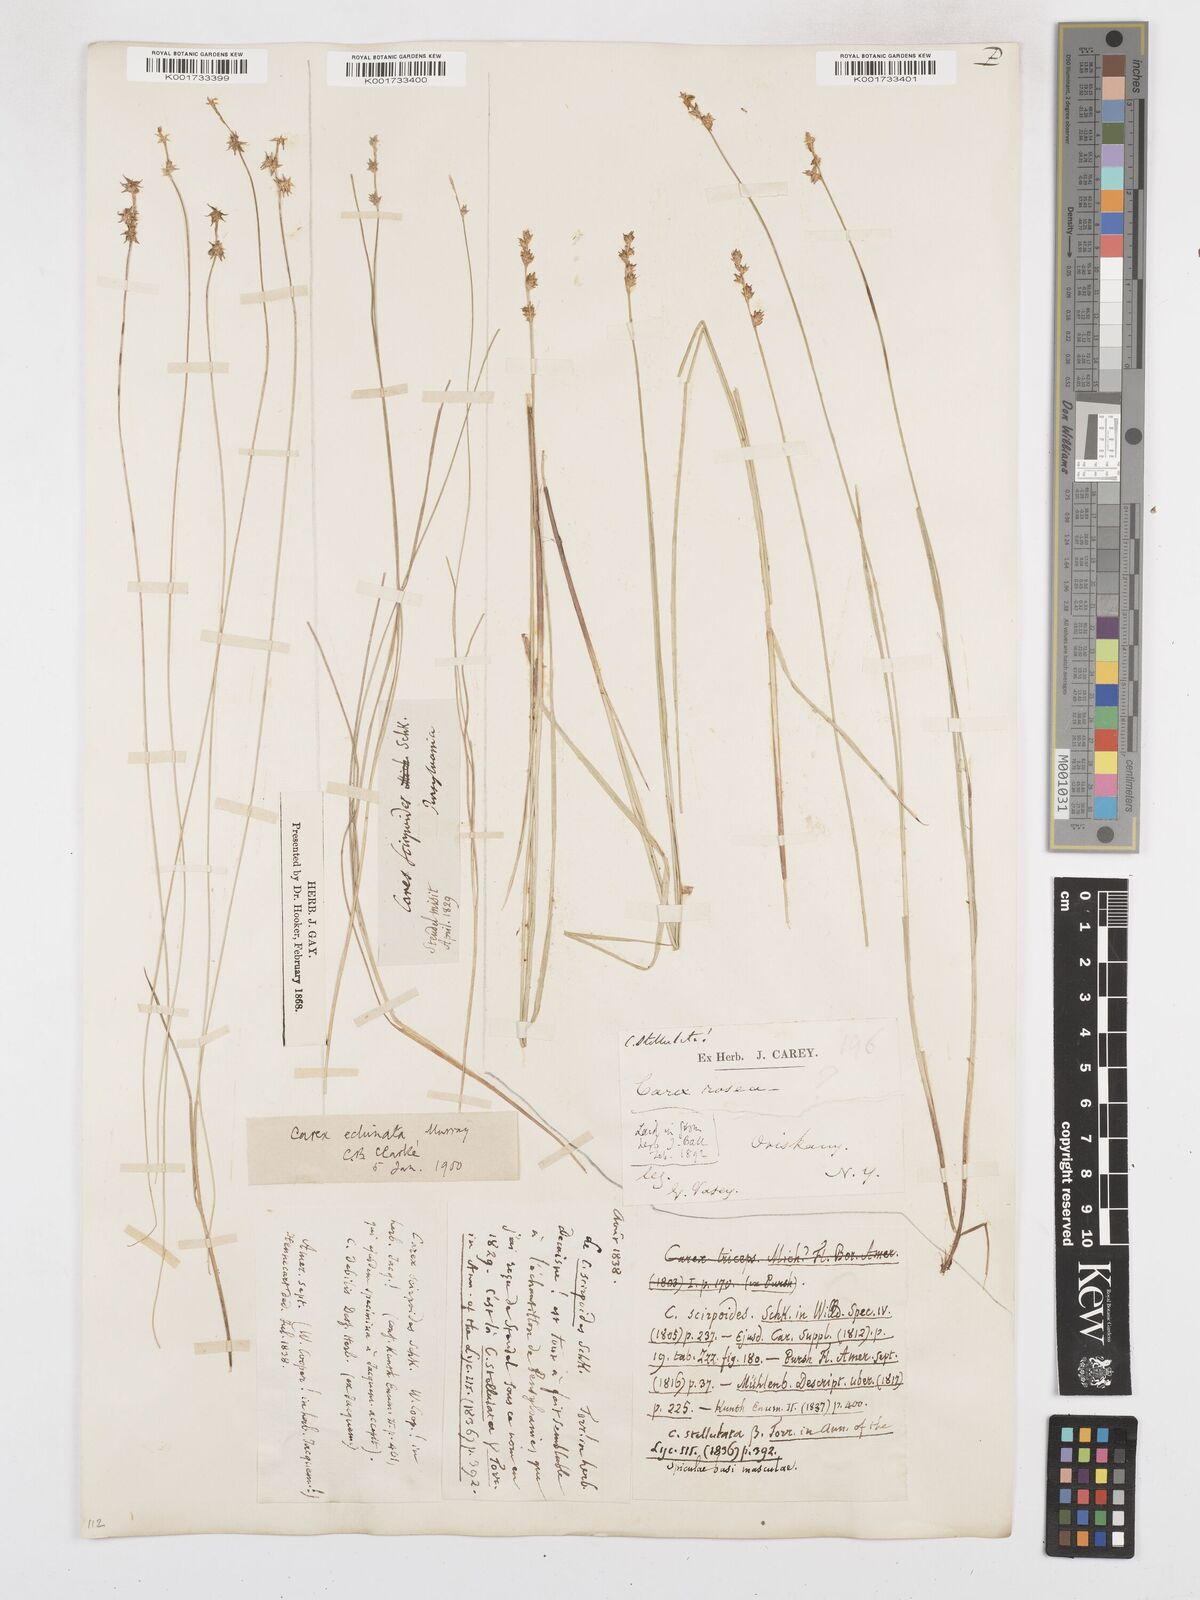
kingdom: Plantae
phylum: Tracheophyta
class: Liliopsida
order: Poales
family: Cyperaceae
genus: Carex
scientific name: Carex echinata
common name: Star sedge
